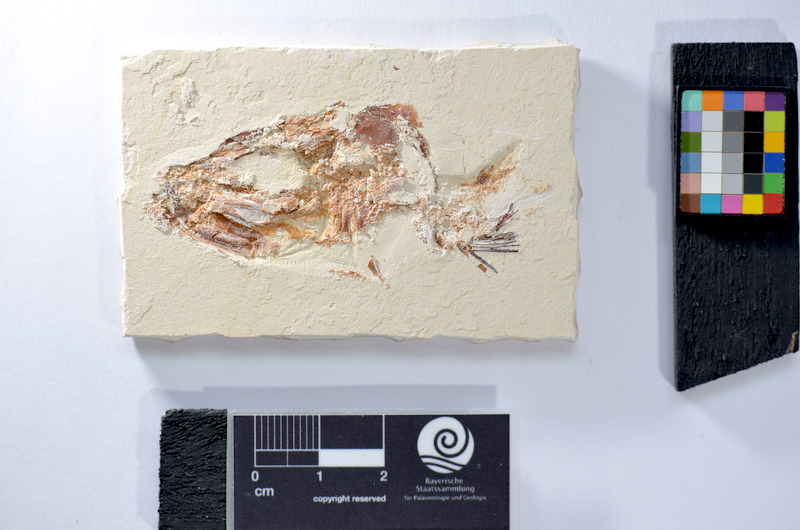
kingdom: Animalia
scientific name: Animalia
